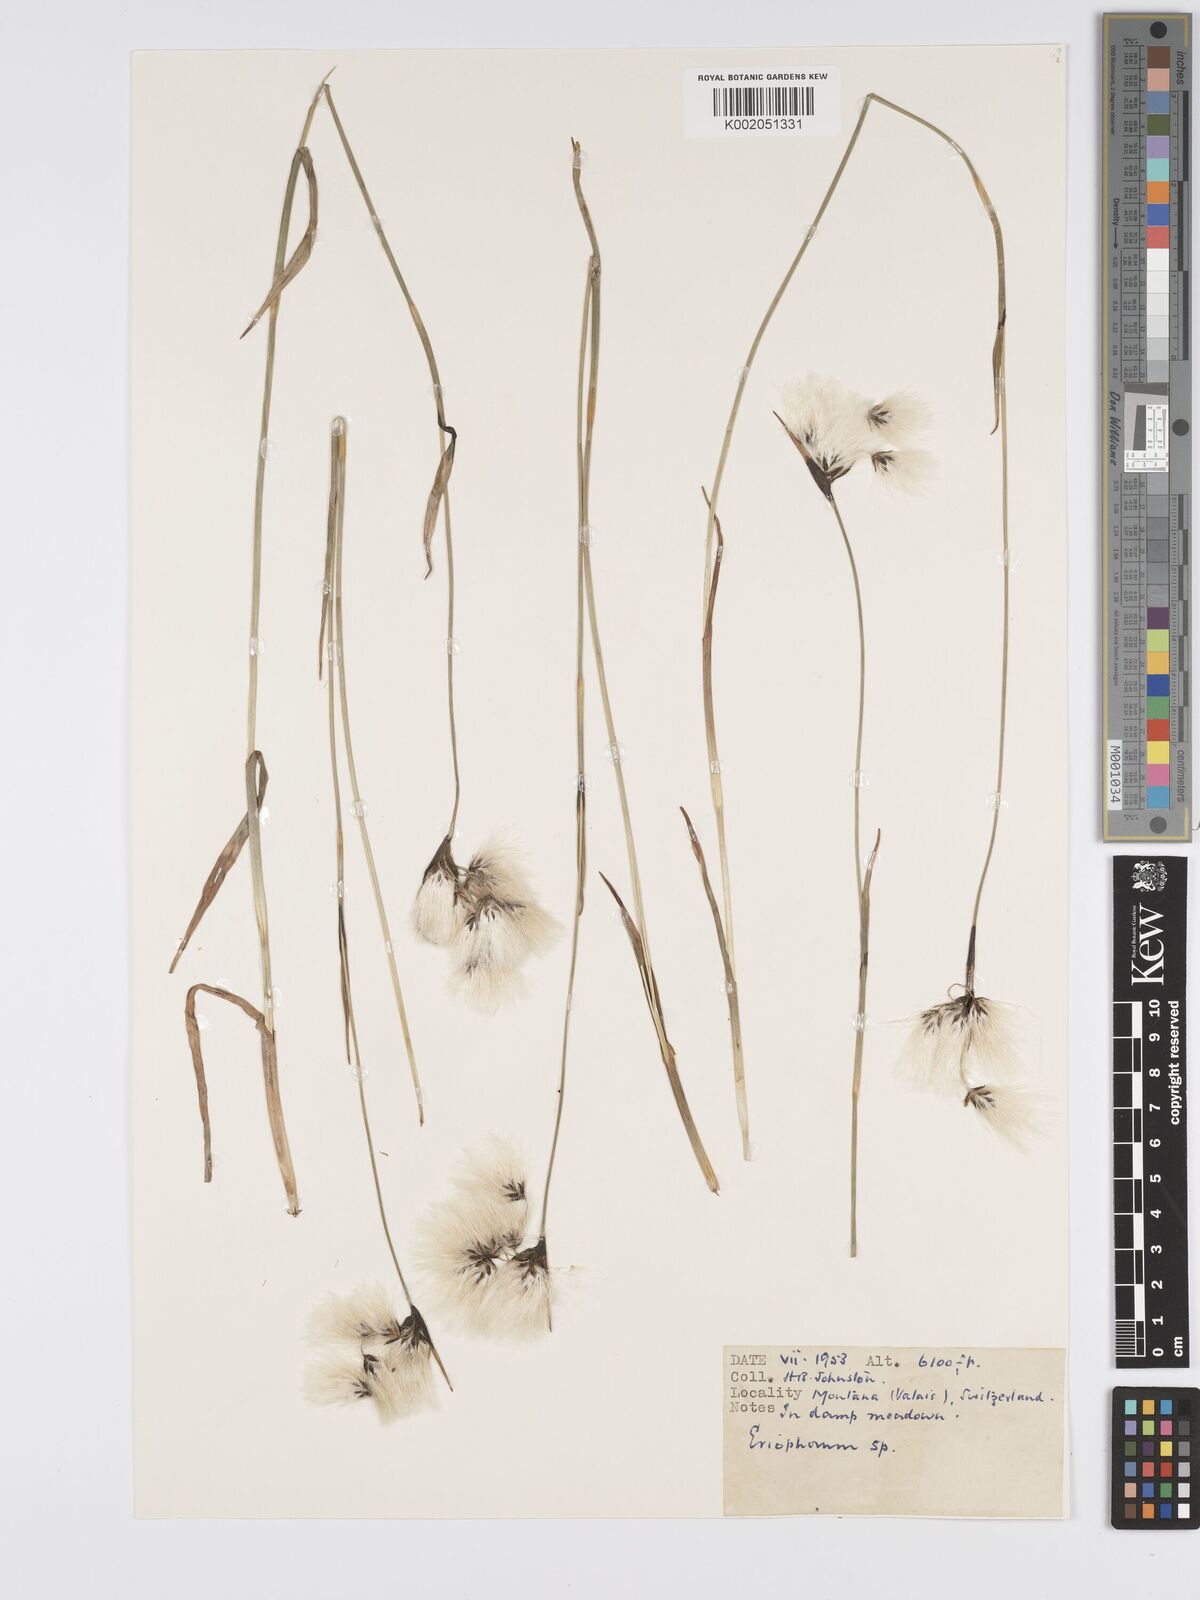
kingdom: Plantae
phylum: Tracheophyta
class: Liliopsida
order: Poales
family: Cyperaceae
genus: Eriophorum
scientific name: Eriophorum
